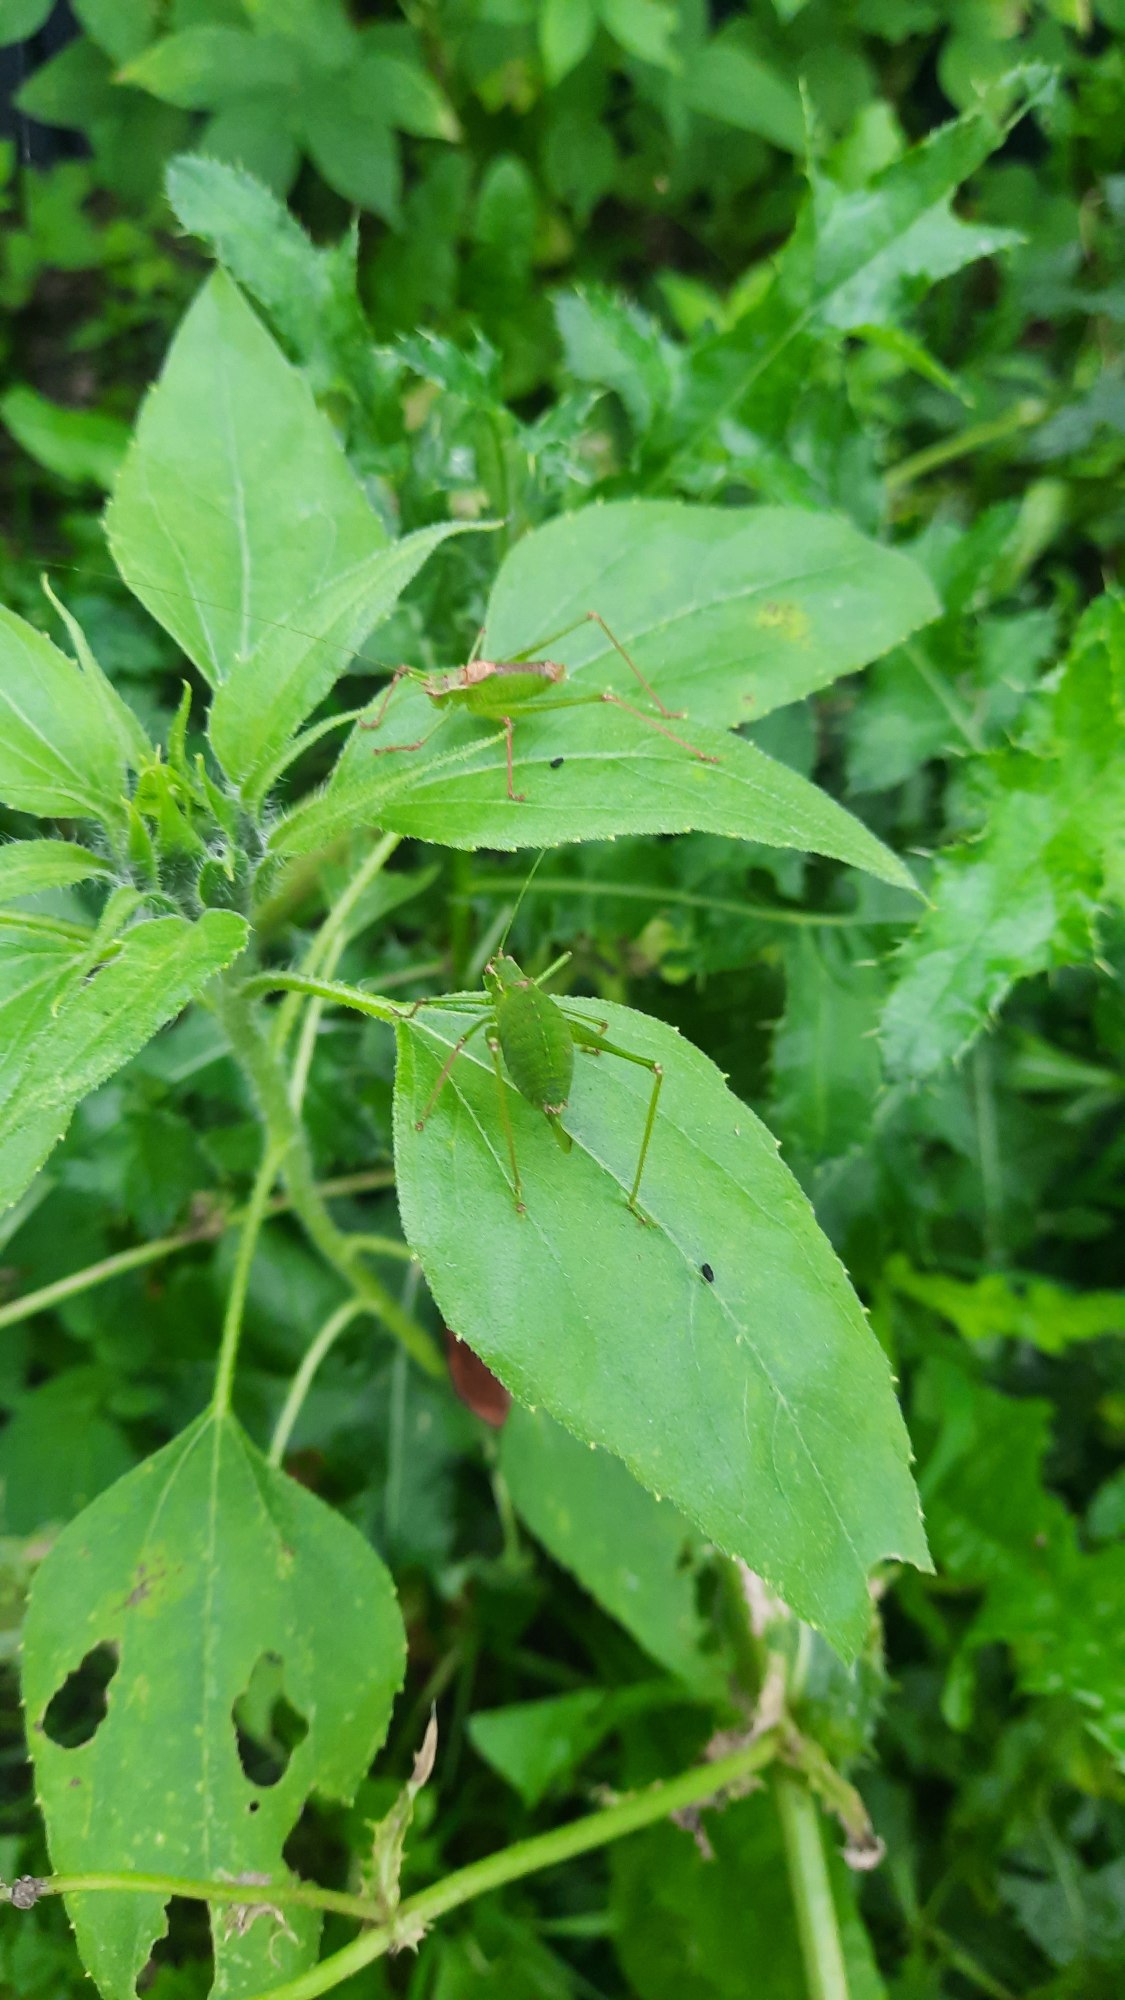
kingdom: Animalia
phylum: Arthropoda
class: Insecta
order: Orthoptera
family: Tettigoniidae
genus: Leptophyes
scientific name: Leptophyes punctatissima
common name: Krumknivgræshoppe
